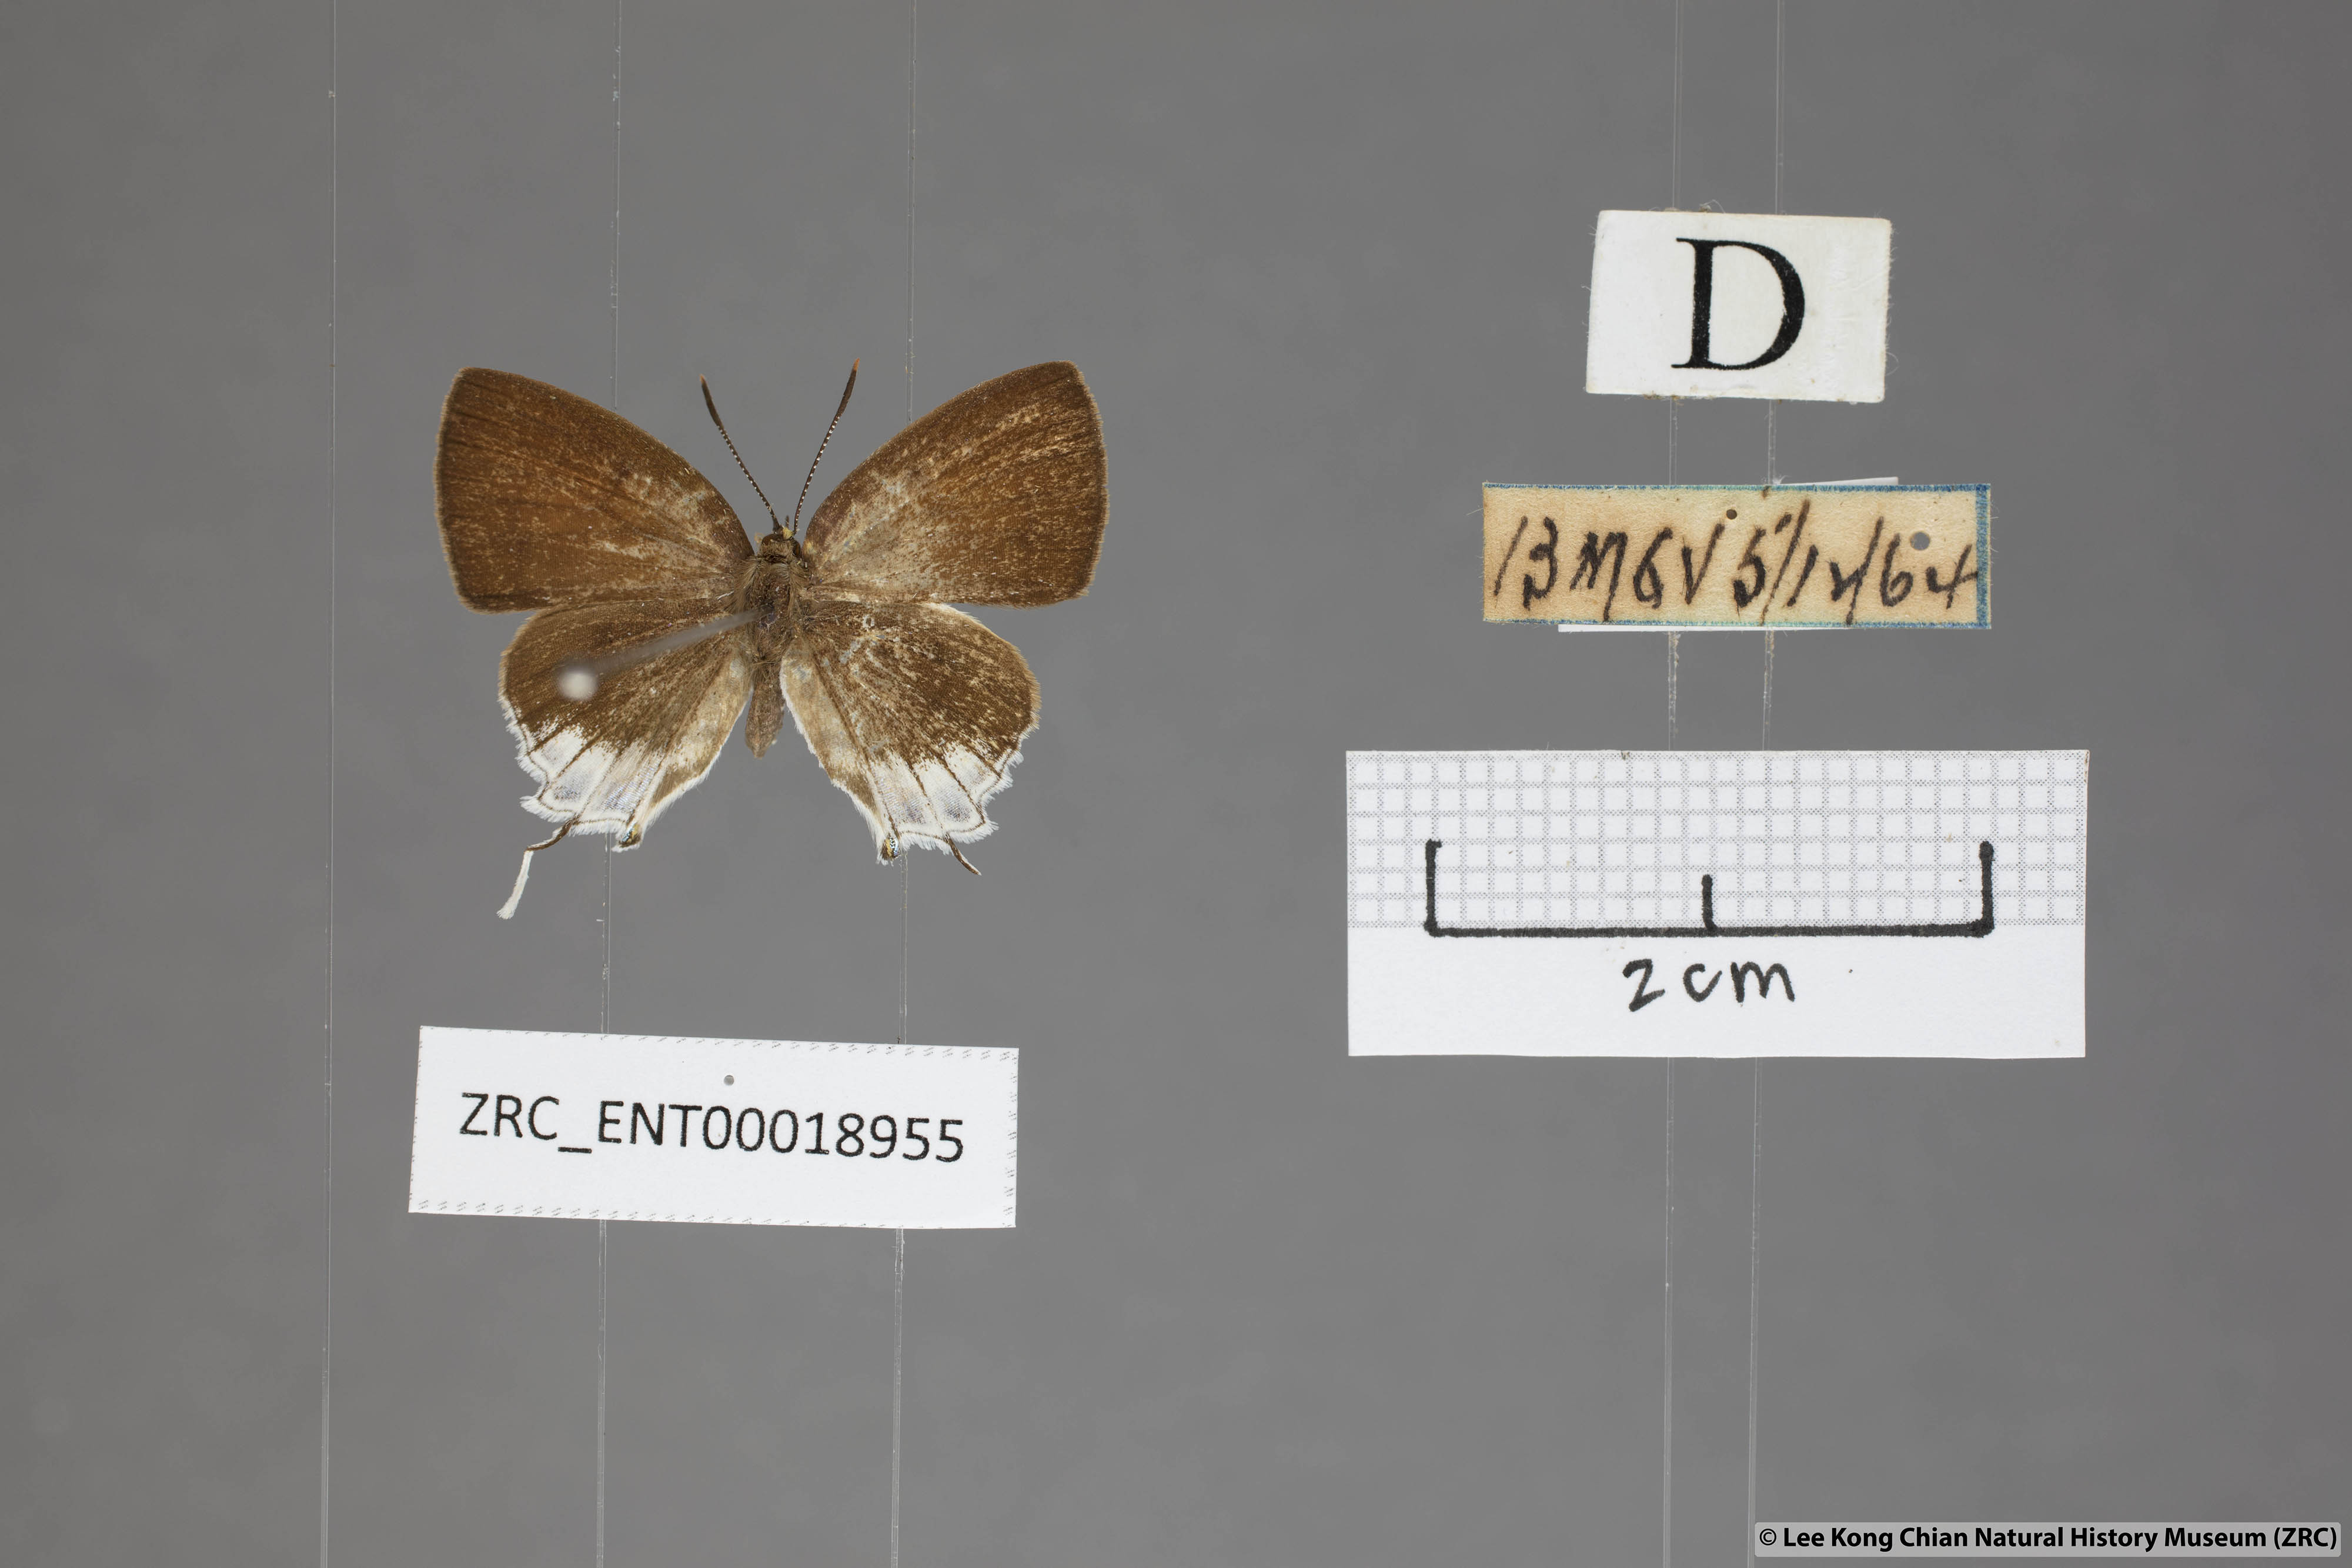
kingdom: Animalia
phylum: Arthropoda
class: Insecta
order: Lepidoptera
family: Lycaenidae
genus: Araotes
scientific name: Araotes lapithis
